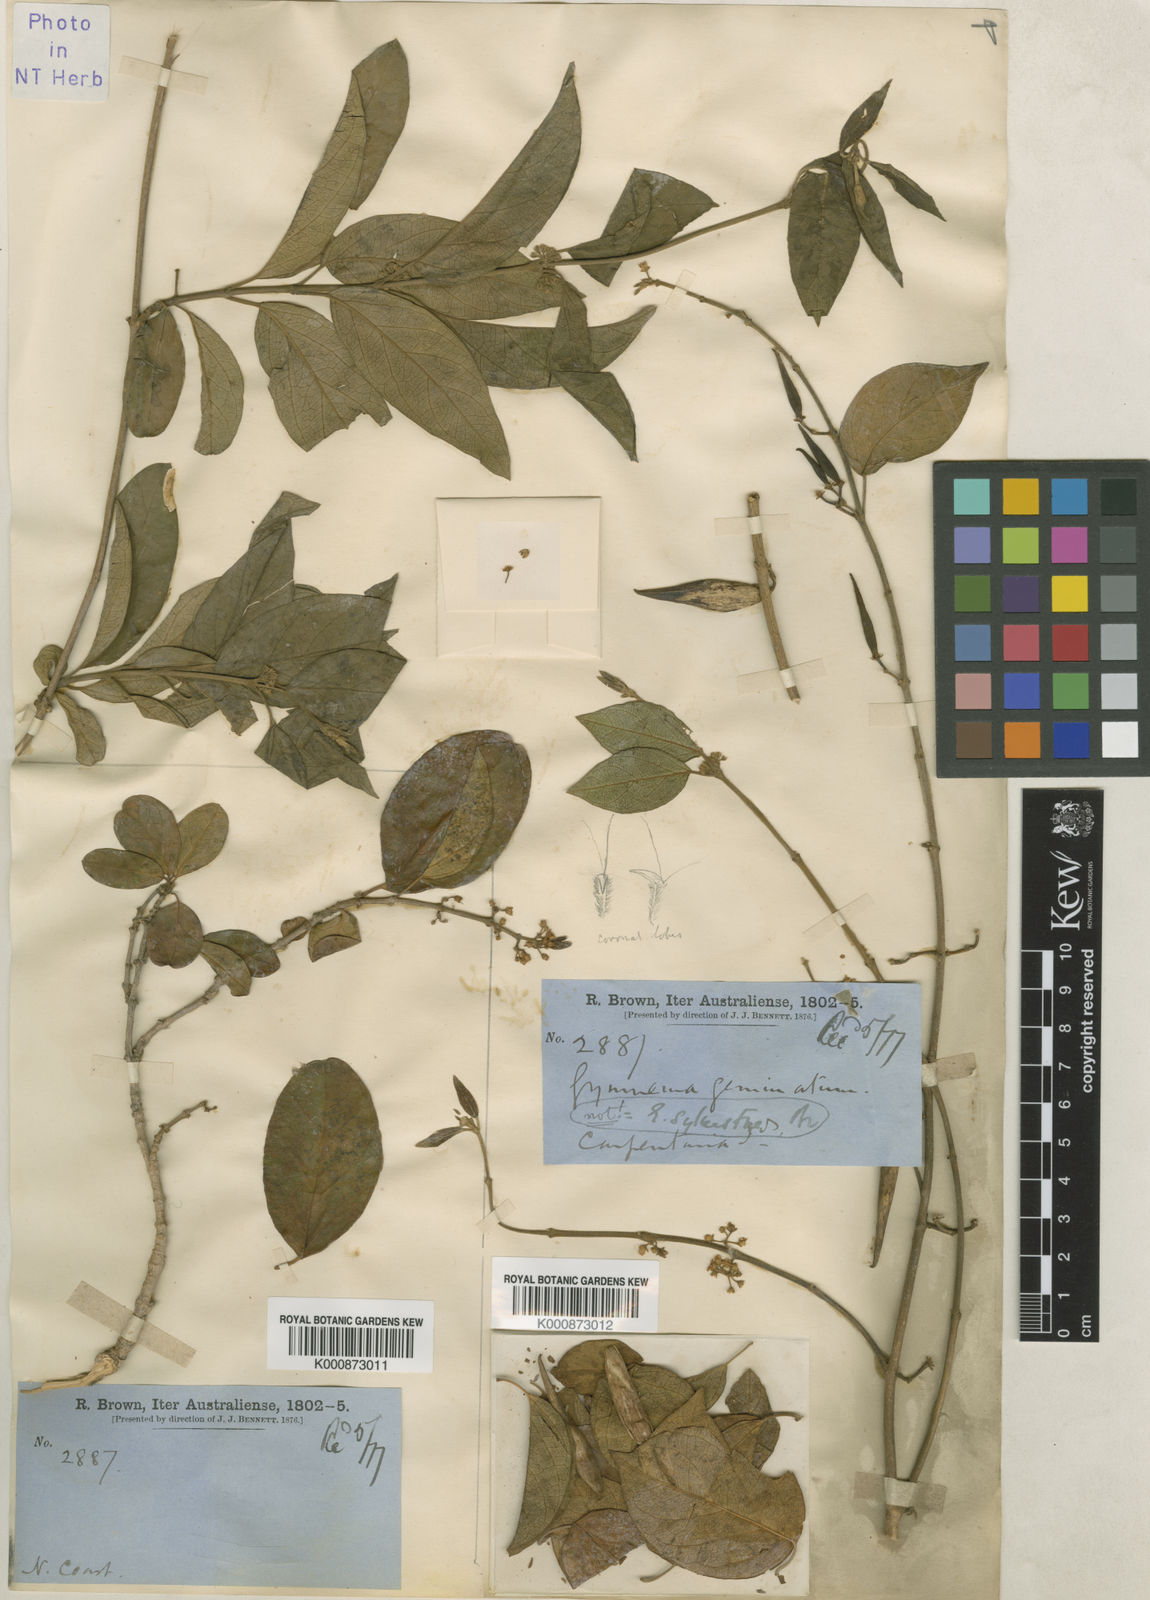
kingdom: Plantae
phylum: Tracheophyta
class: Magnoliopsida
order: Gentianales
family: Apocynaceae
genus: Gymnema
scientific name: Gymnema geminatum
